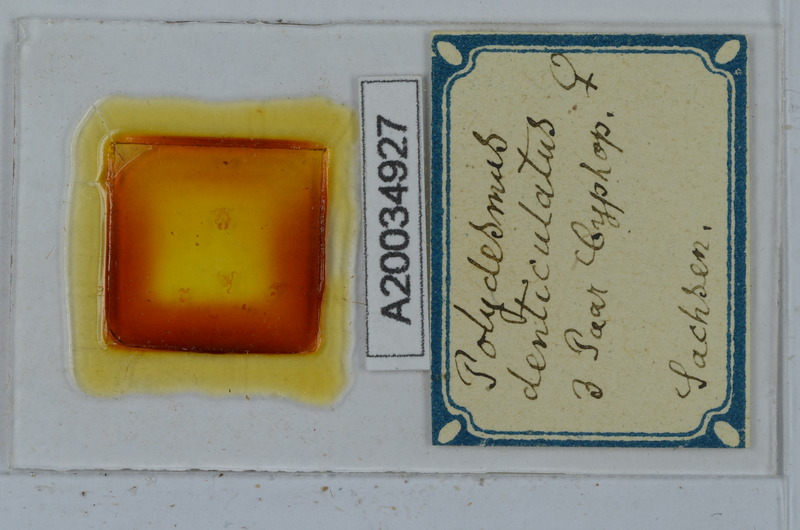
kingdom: Animalia
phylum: Arthropoda
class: Diplopoda
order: Polydesmida
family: Polydesmidae
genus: Polydesmus
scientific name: Polydesmus denticulatus
